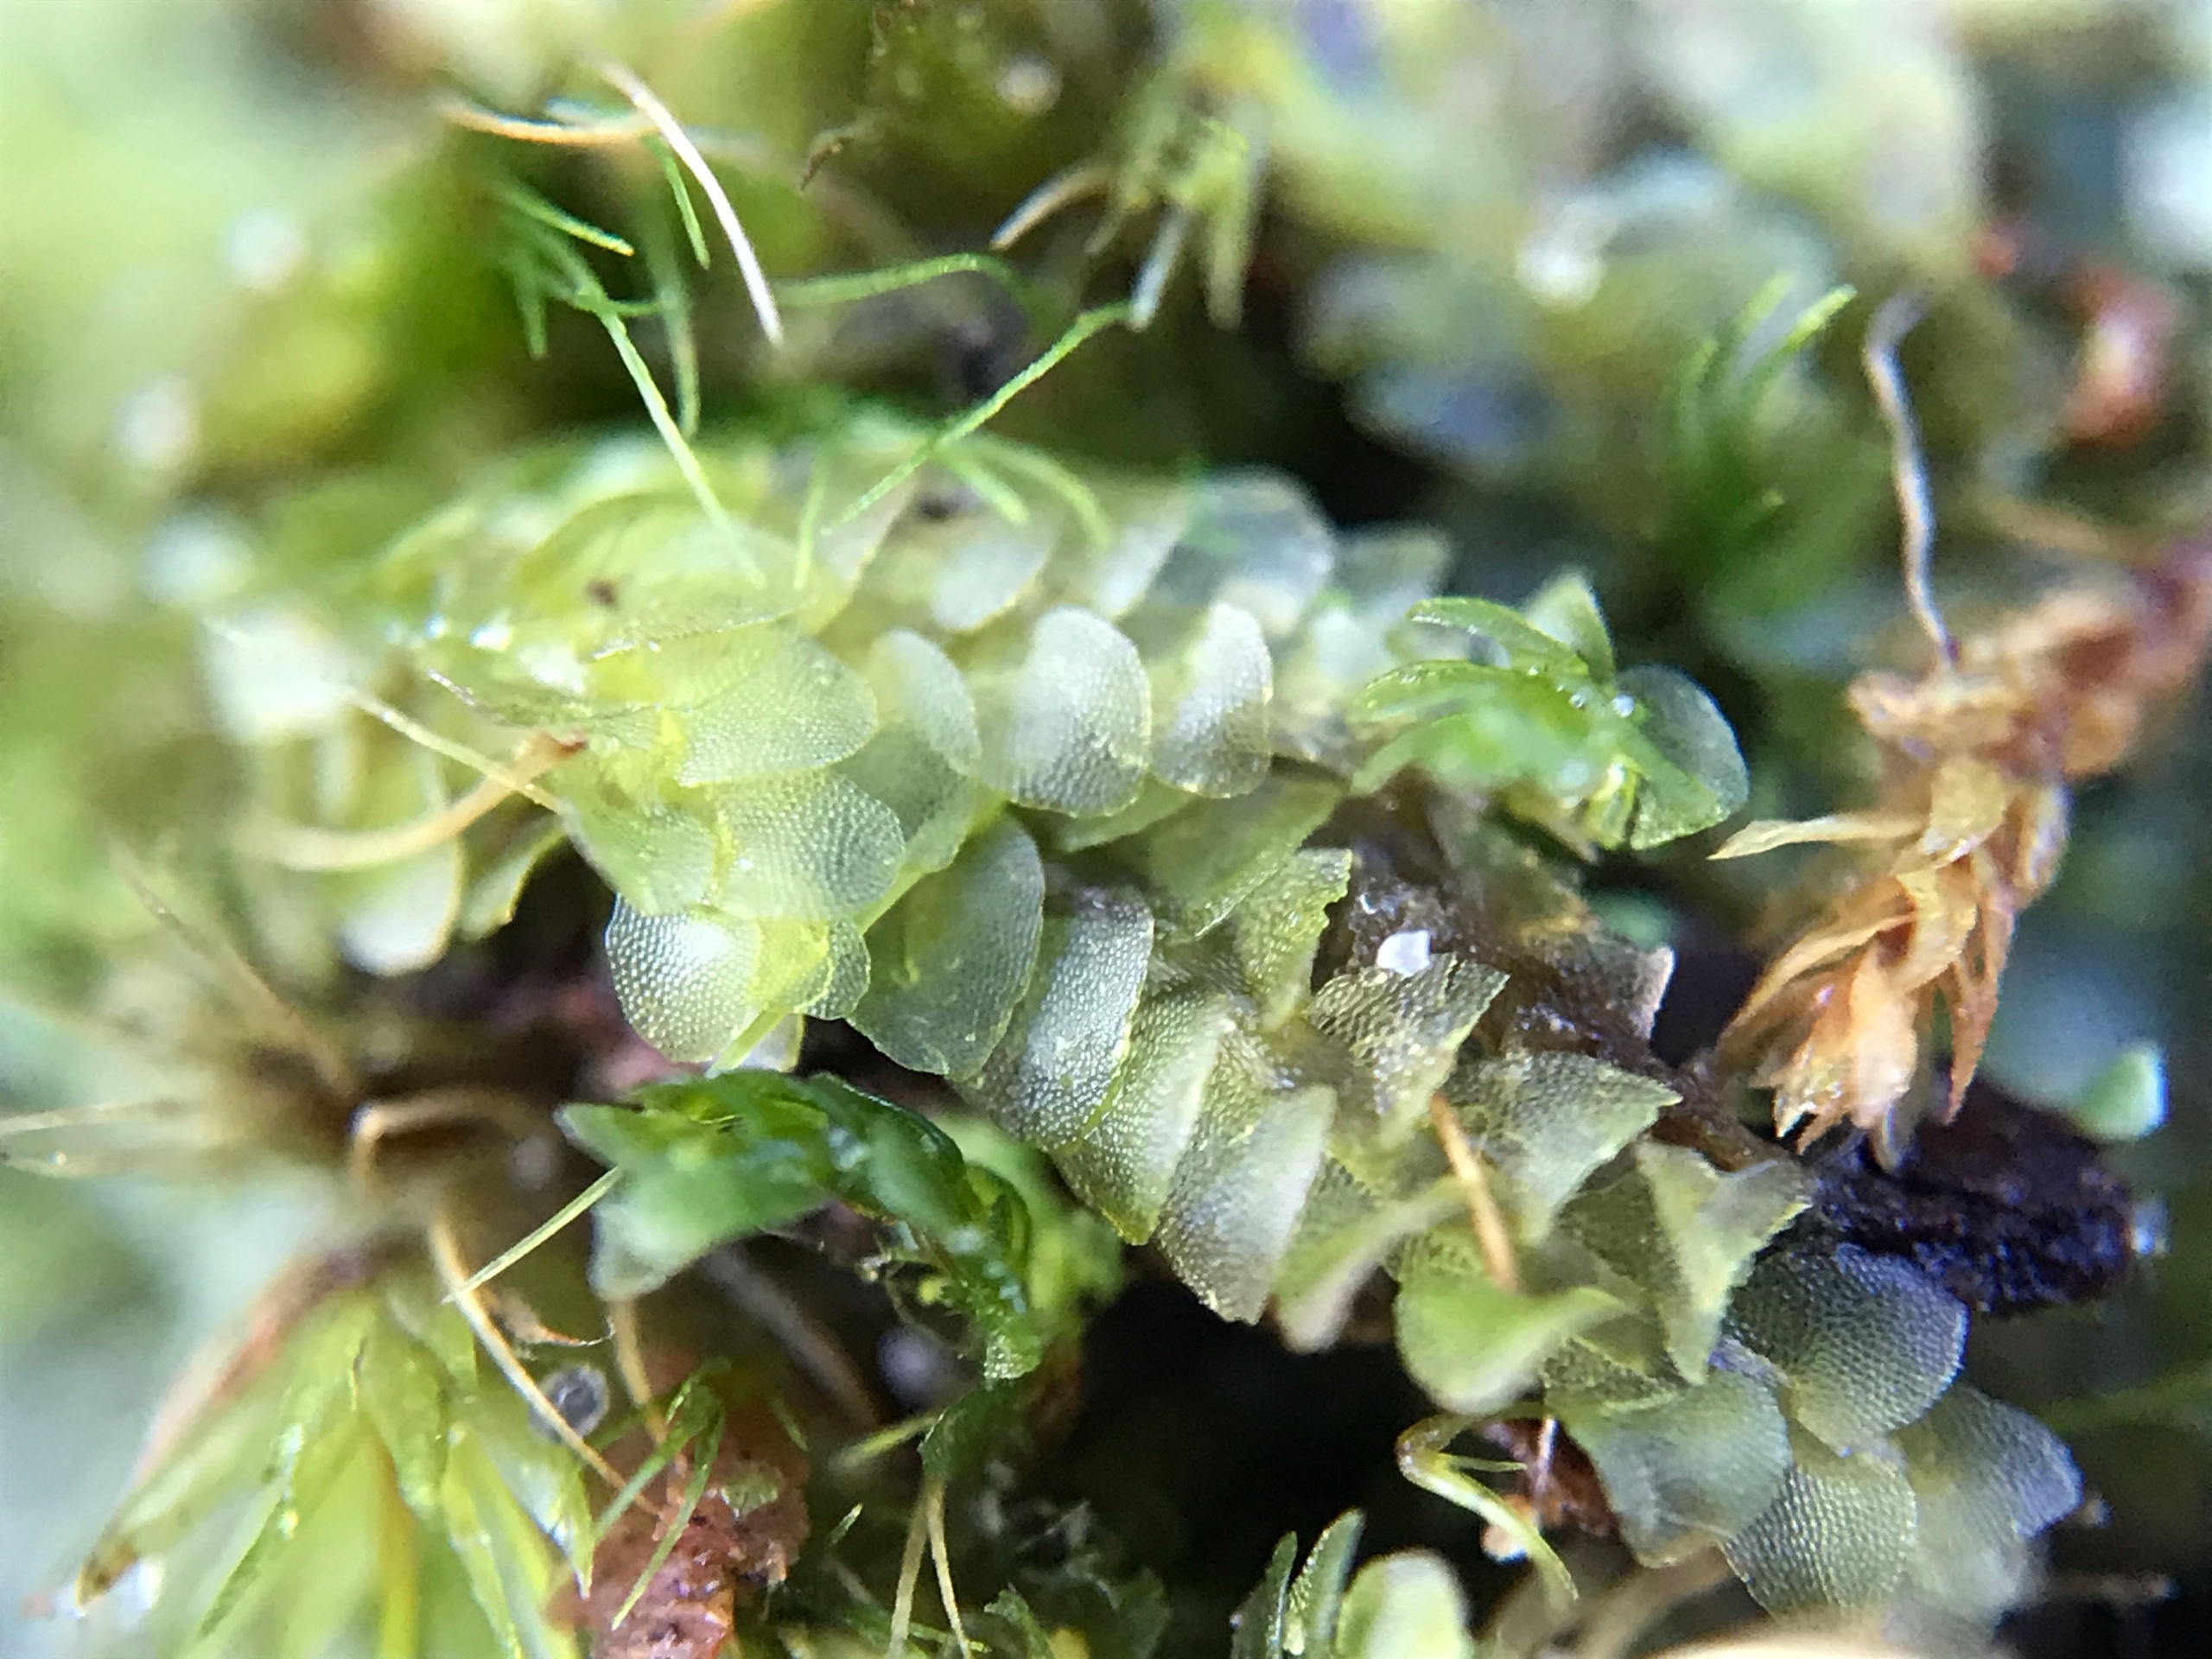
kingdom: Plantae
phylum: Marchantiophyta
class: Jungermanniopsida
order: Jungermanniales
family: Calypogeiaceae
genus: Calypogeia
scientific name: Calypogeia
